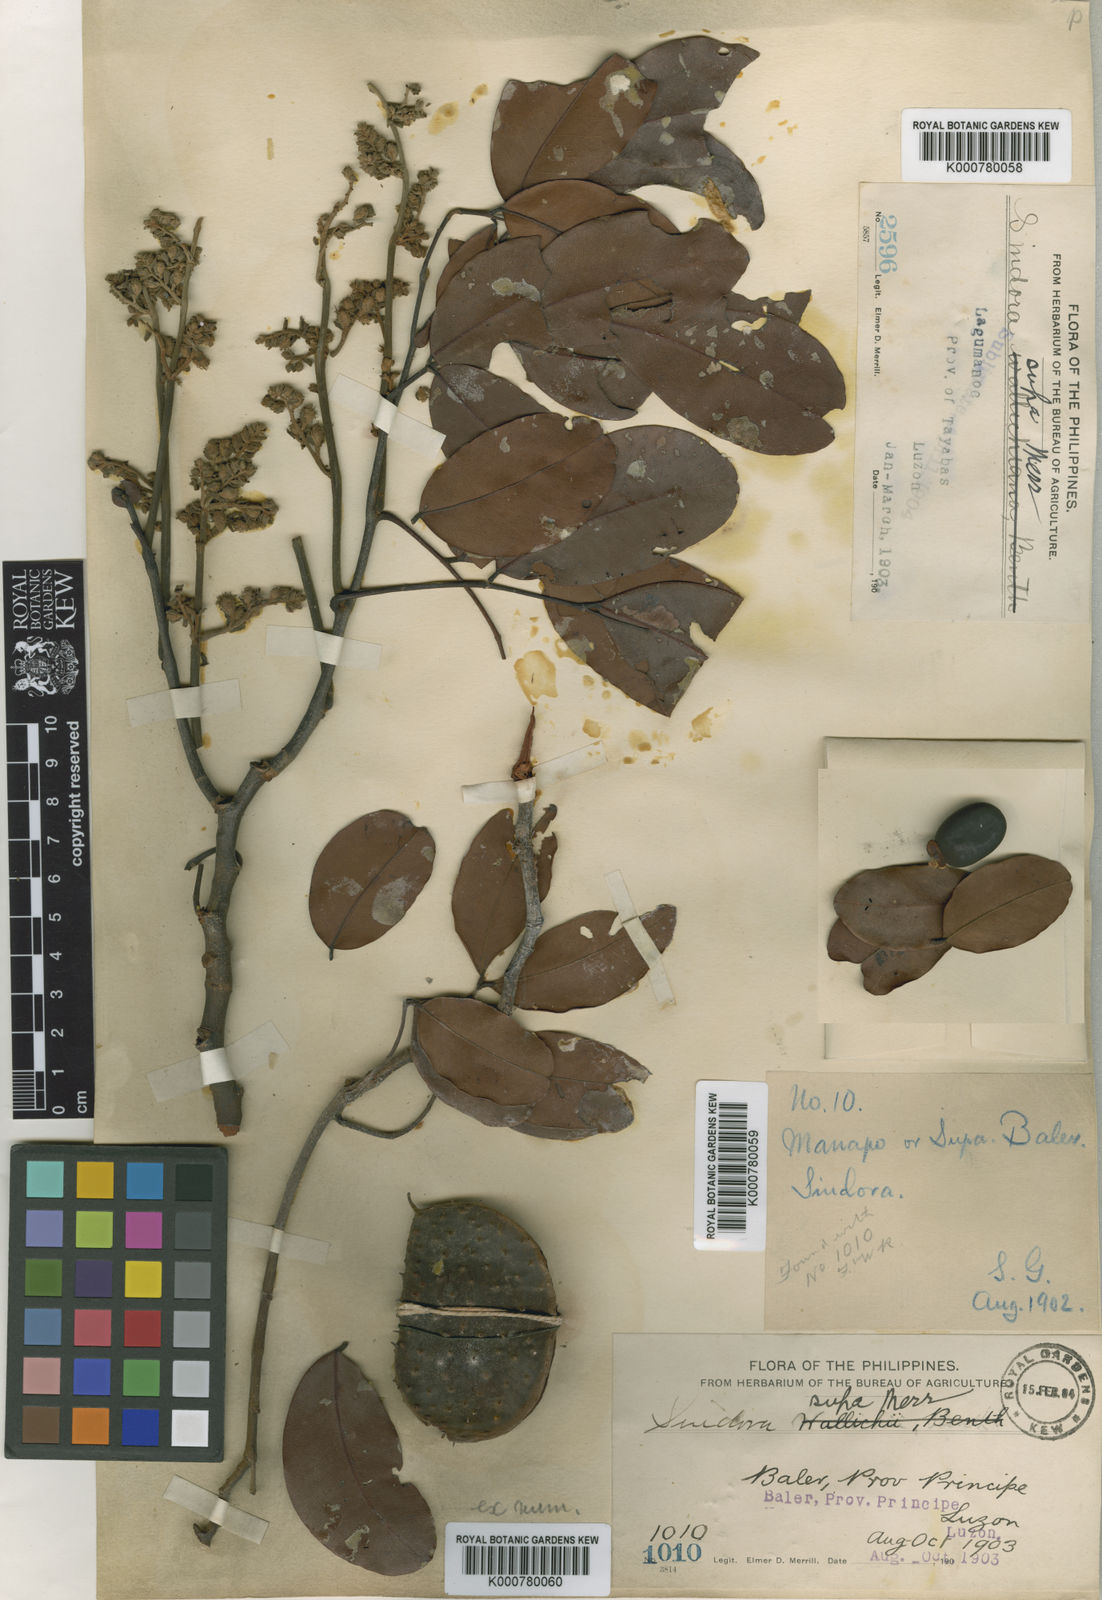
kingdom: Plantae
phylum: Tracheophyta
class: Magnoliopsida
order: Fabales
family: Fabaceae
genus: Sindora
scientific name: Sindora supa
